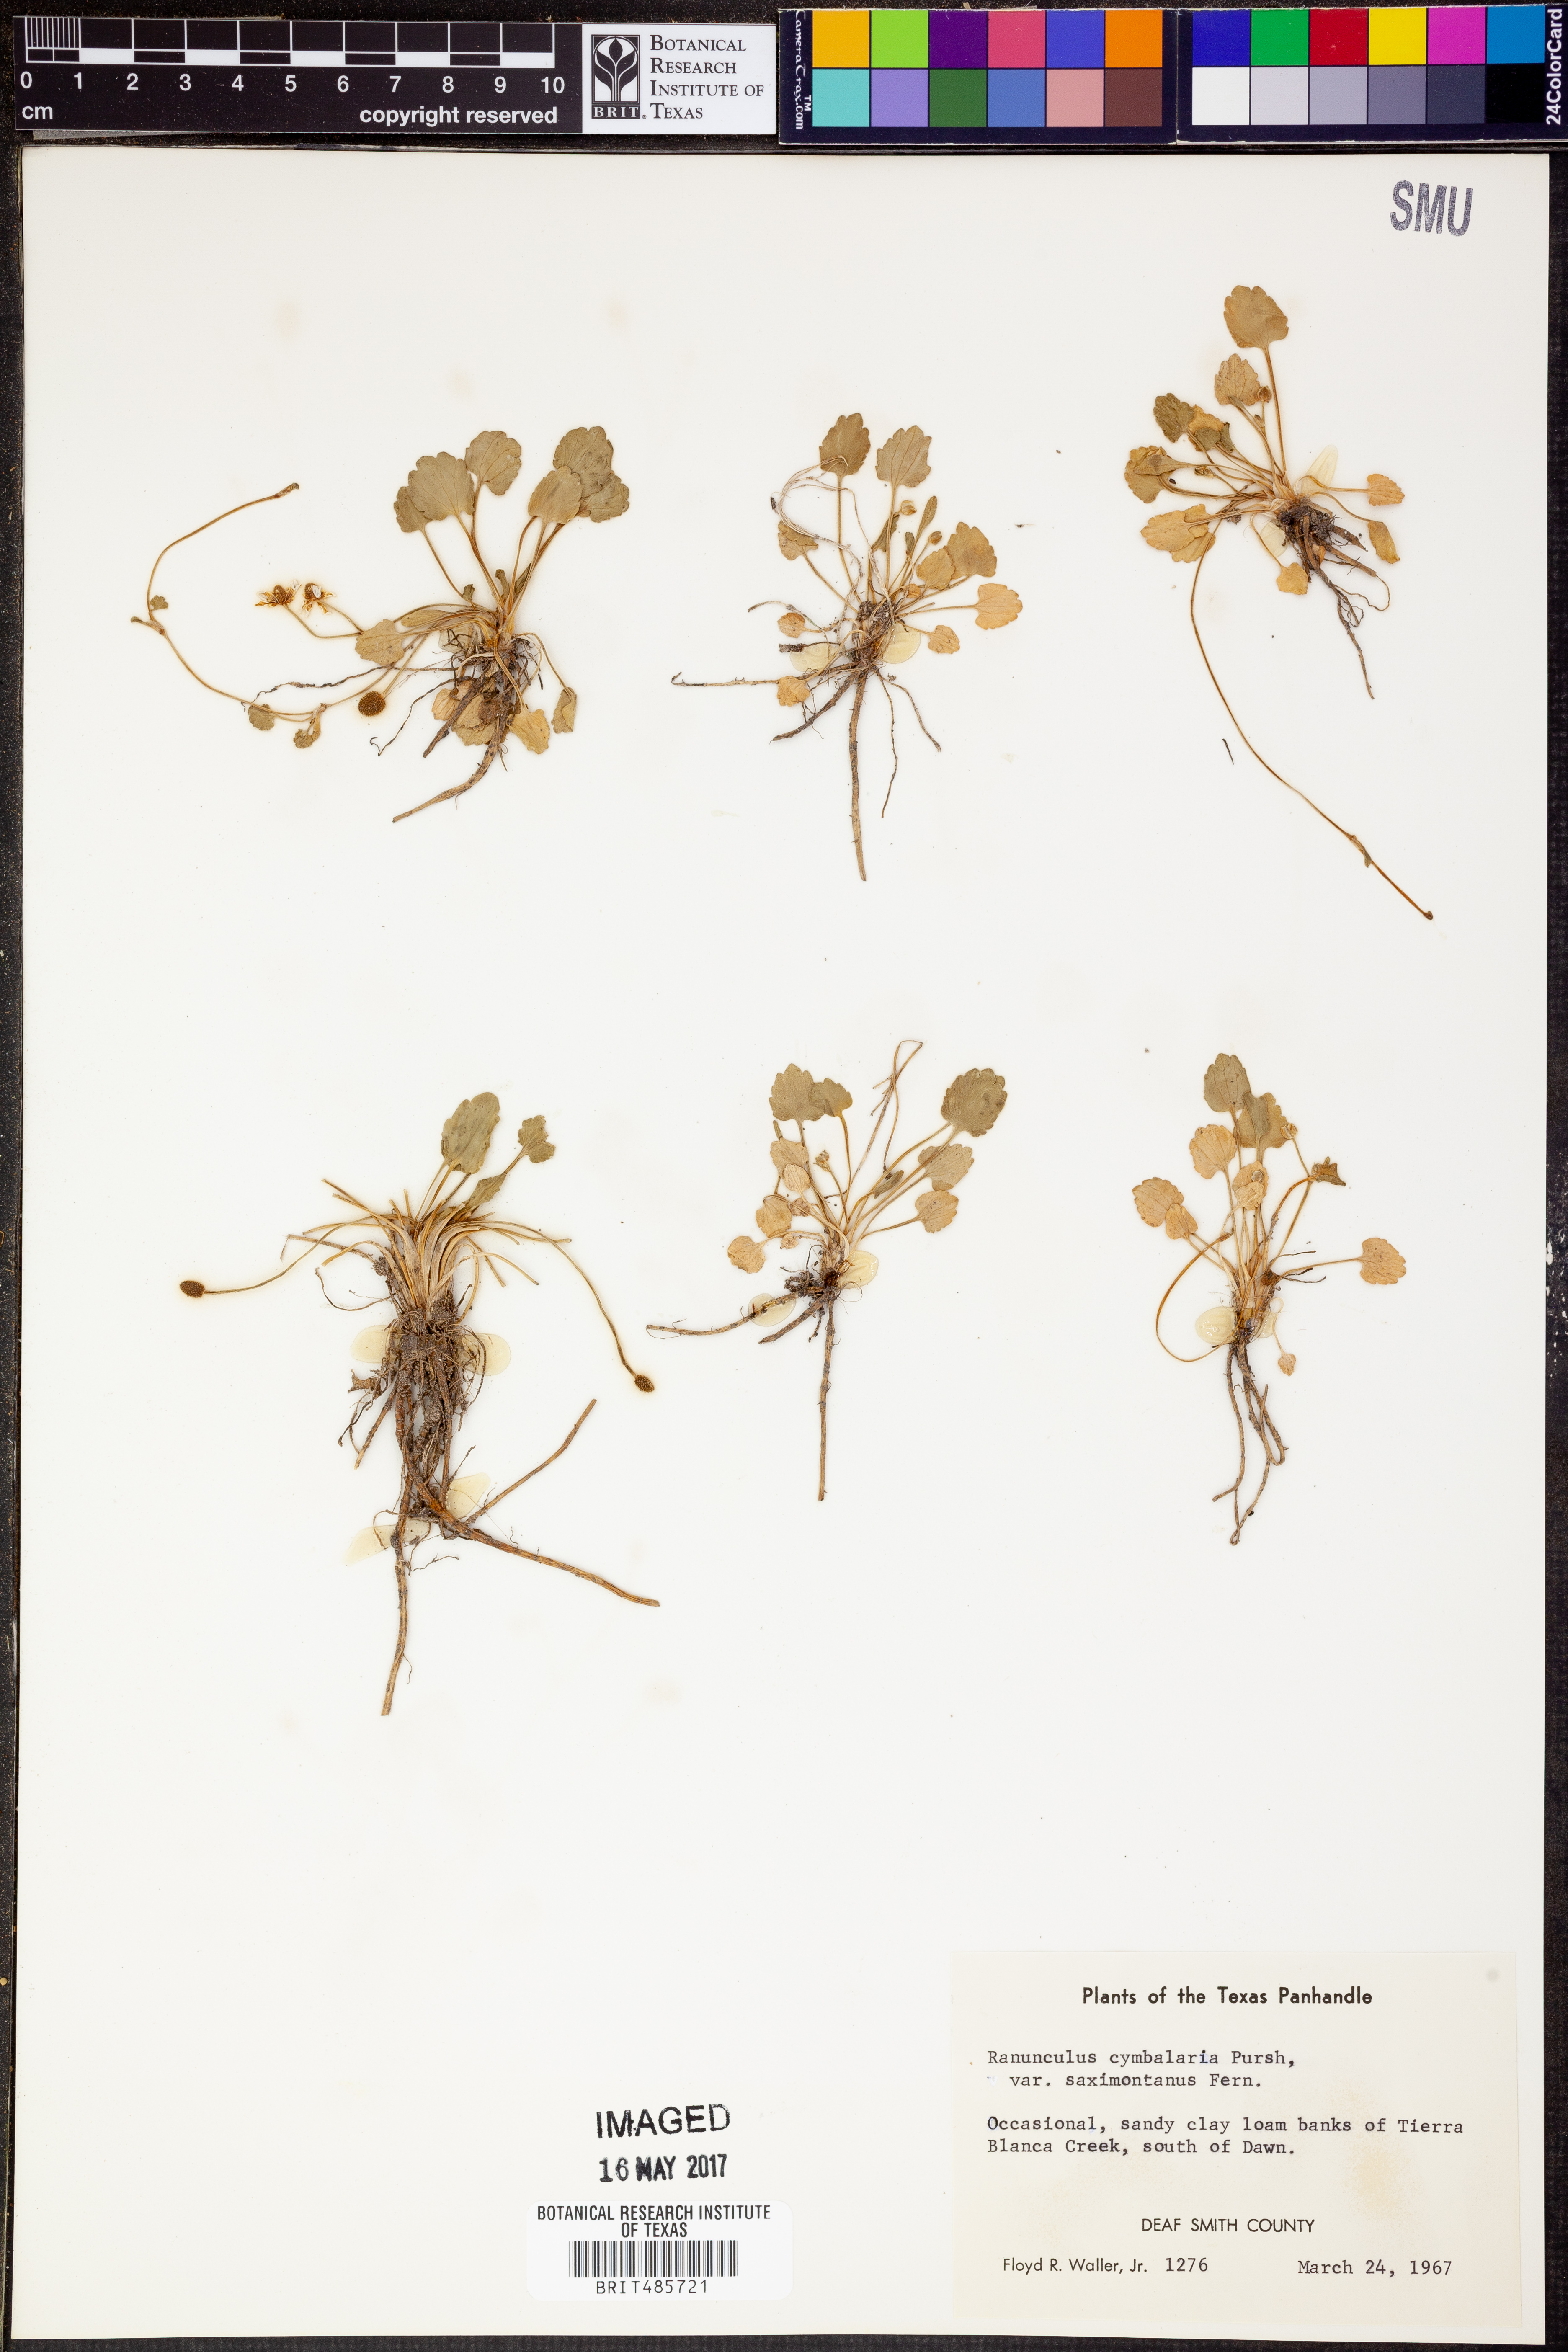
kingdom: Plantae
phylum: Tracheophyta
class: Magnoliopsida
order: Ranunculales
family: Ranunculaceae
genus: Halerpestes
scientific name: Halerpestes cymbalaria
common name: Seaside crowfoot
